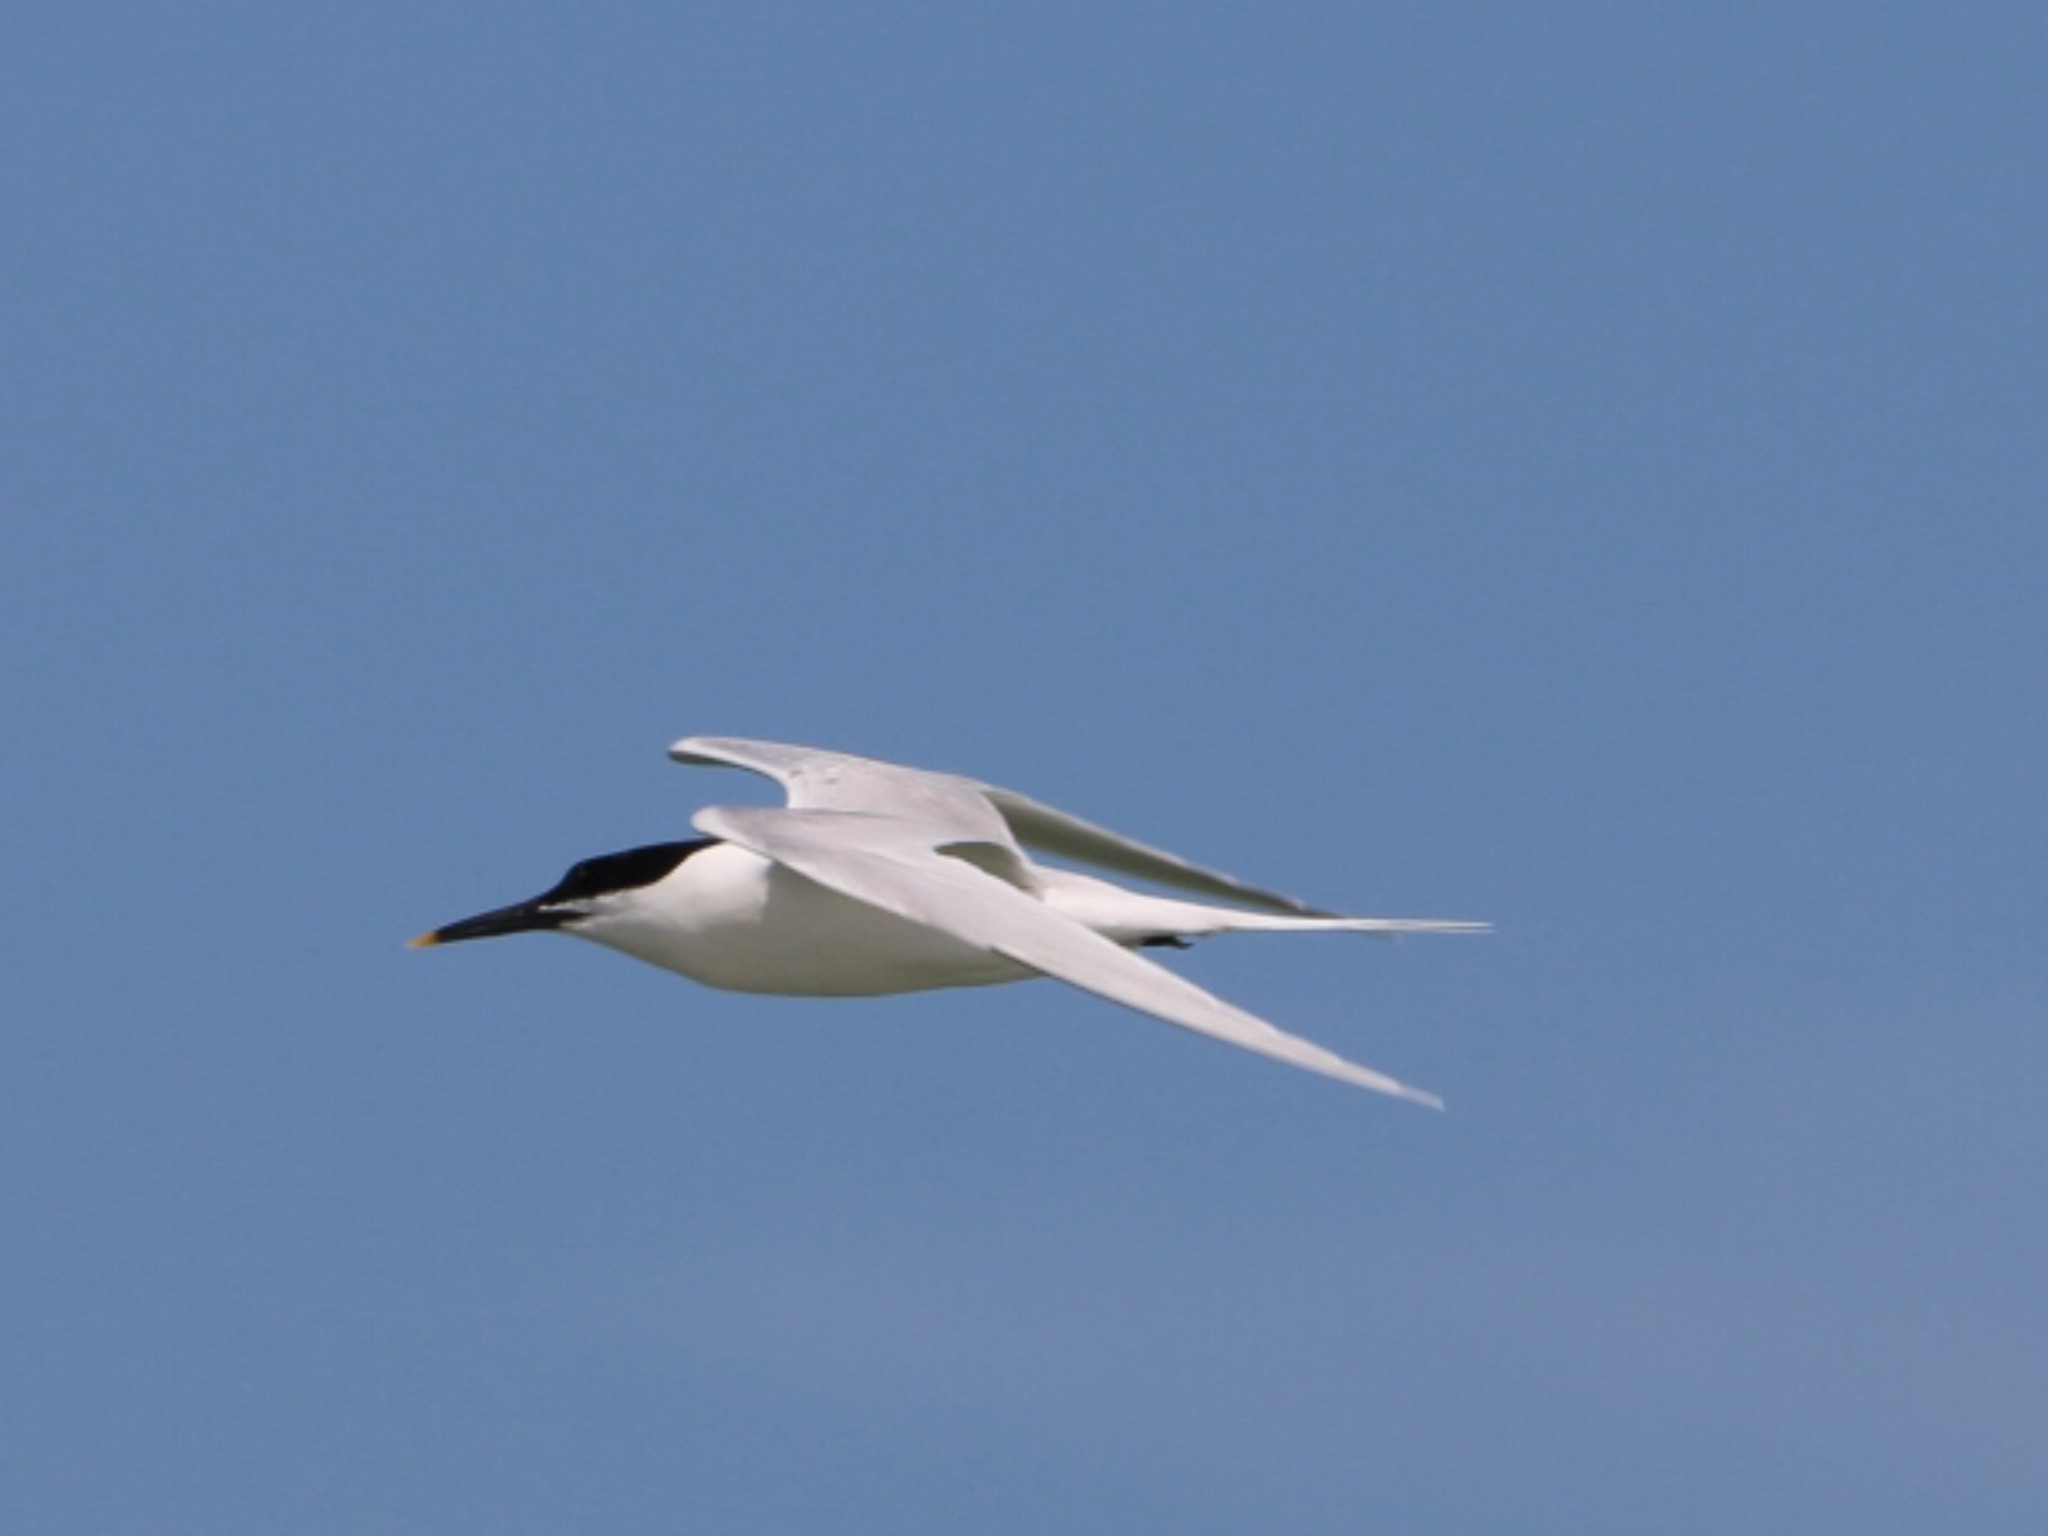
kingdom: Animalia
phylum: Chordata
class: Aves
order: Charadriiformes
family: Laridae
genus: Thalasseus
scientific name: Thalasseus sandvicensis
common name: Splitterne
